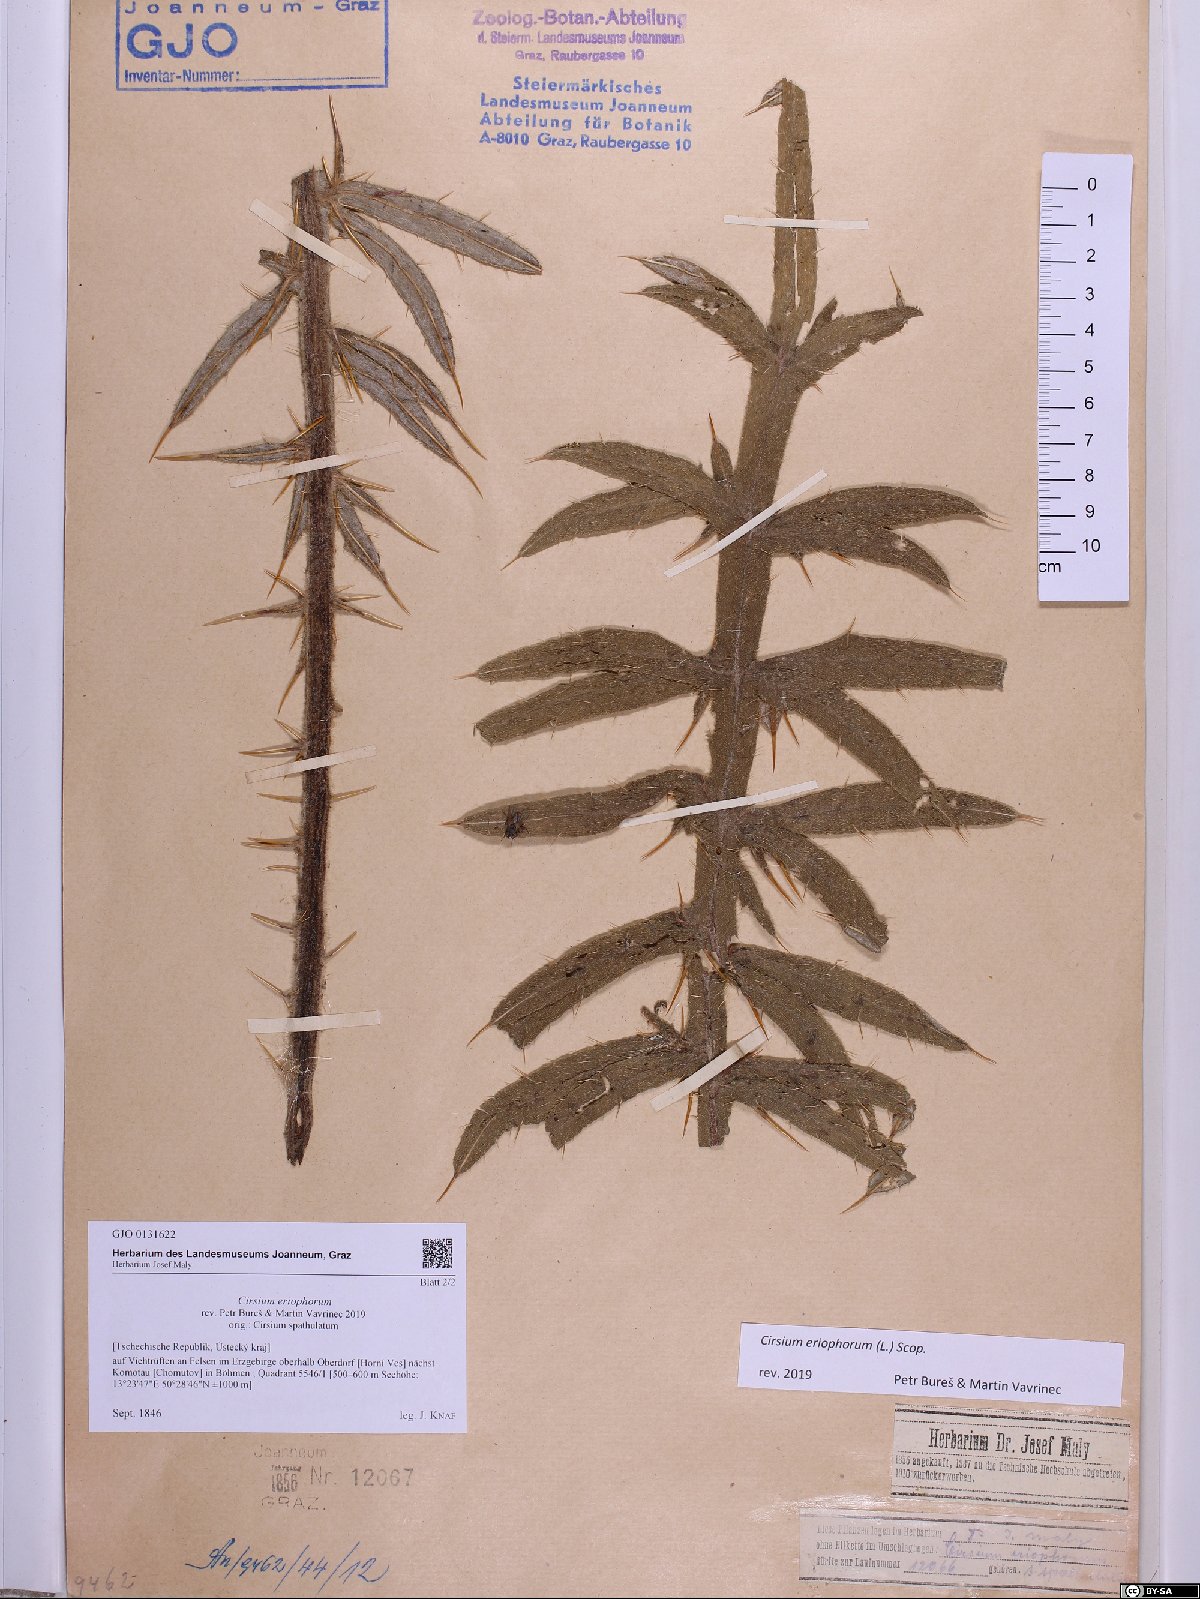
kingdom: Plantae
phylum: Tracheophyta
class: Magnoliopsida
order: Asterales
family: Asteraceae
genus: Lophiolepis
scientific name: Lophiolepis eriophora
